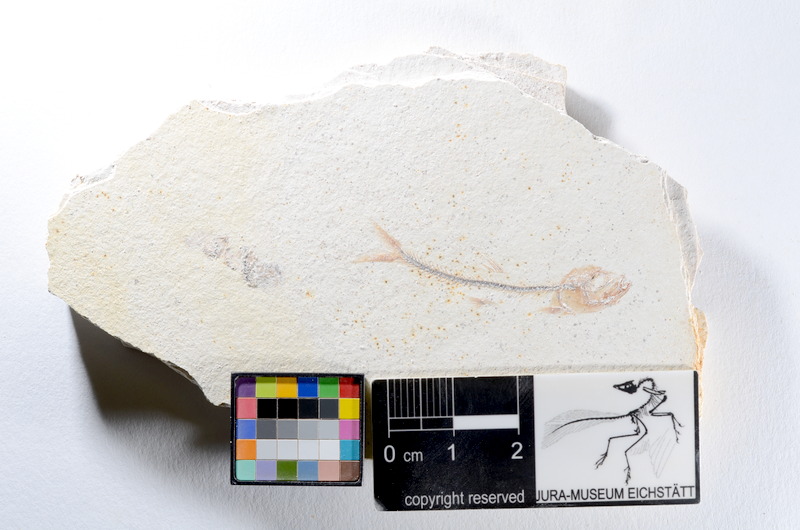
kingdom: Animalia
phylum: Chordata
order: Salmoniformes
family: Orthogonikleithridae
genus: Orthogonikleithrus
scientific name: Orthogonikleithrus hoelli
